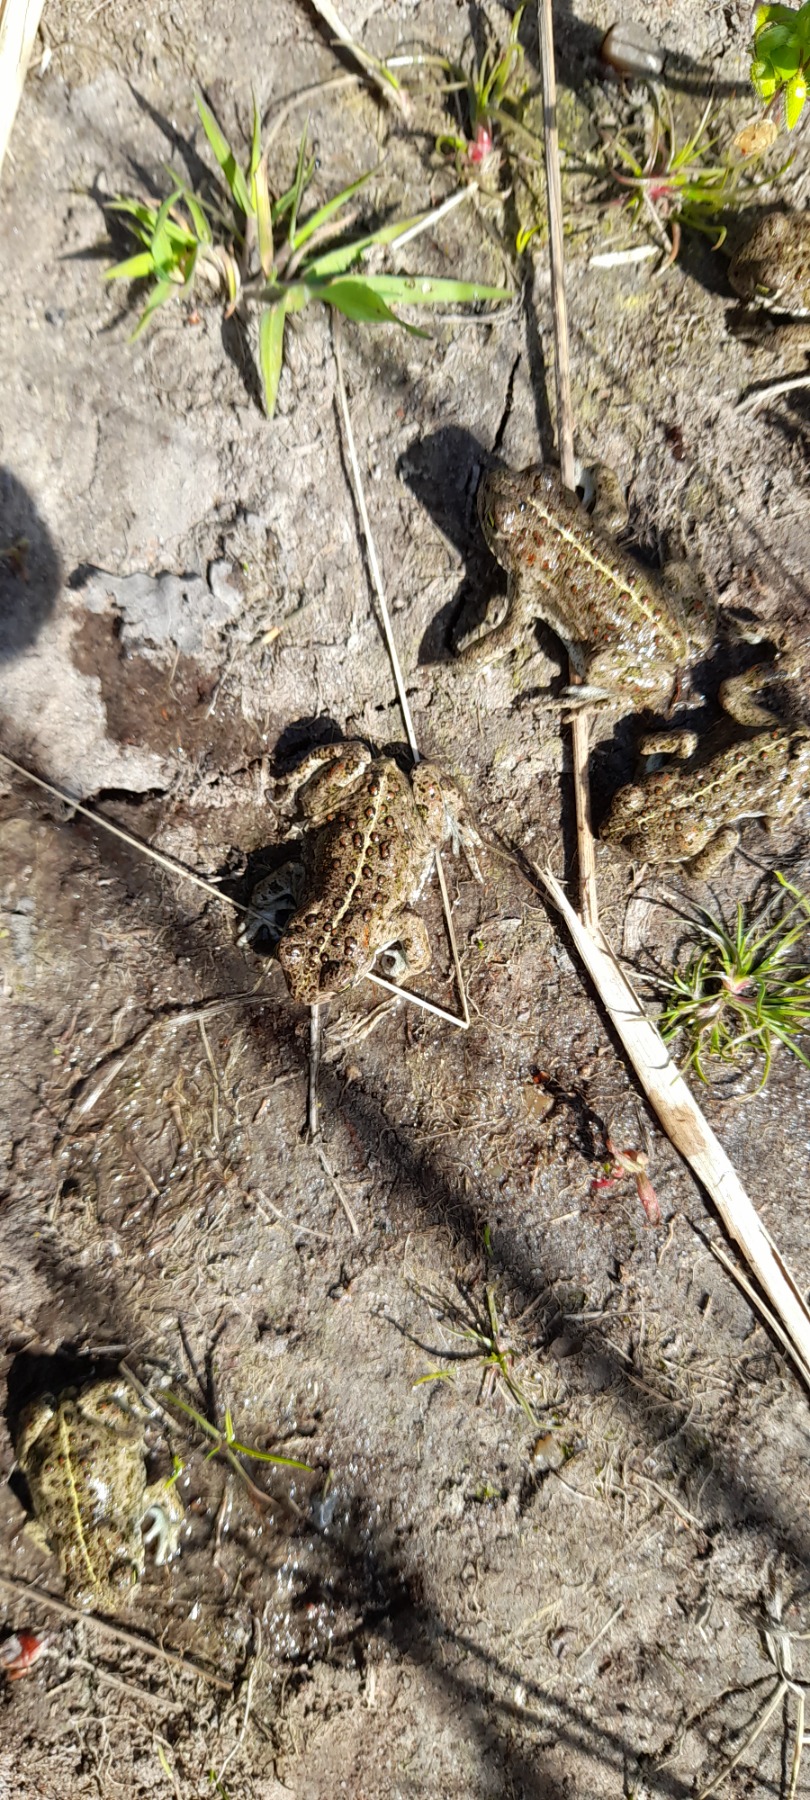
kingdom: Animalia
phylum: Chordata
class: Amphibia
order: Anura
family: Bufonidae
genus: Epidalea
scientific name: Epidalea calamita
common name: Strandtudse
